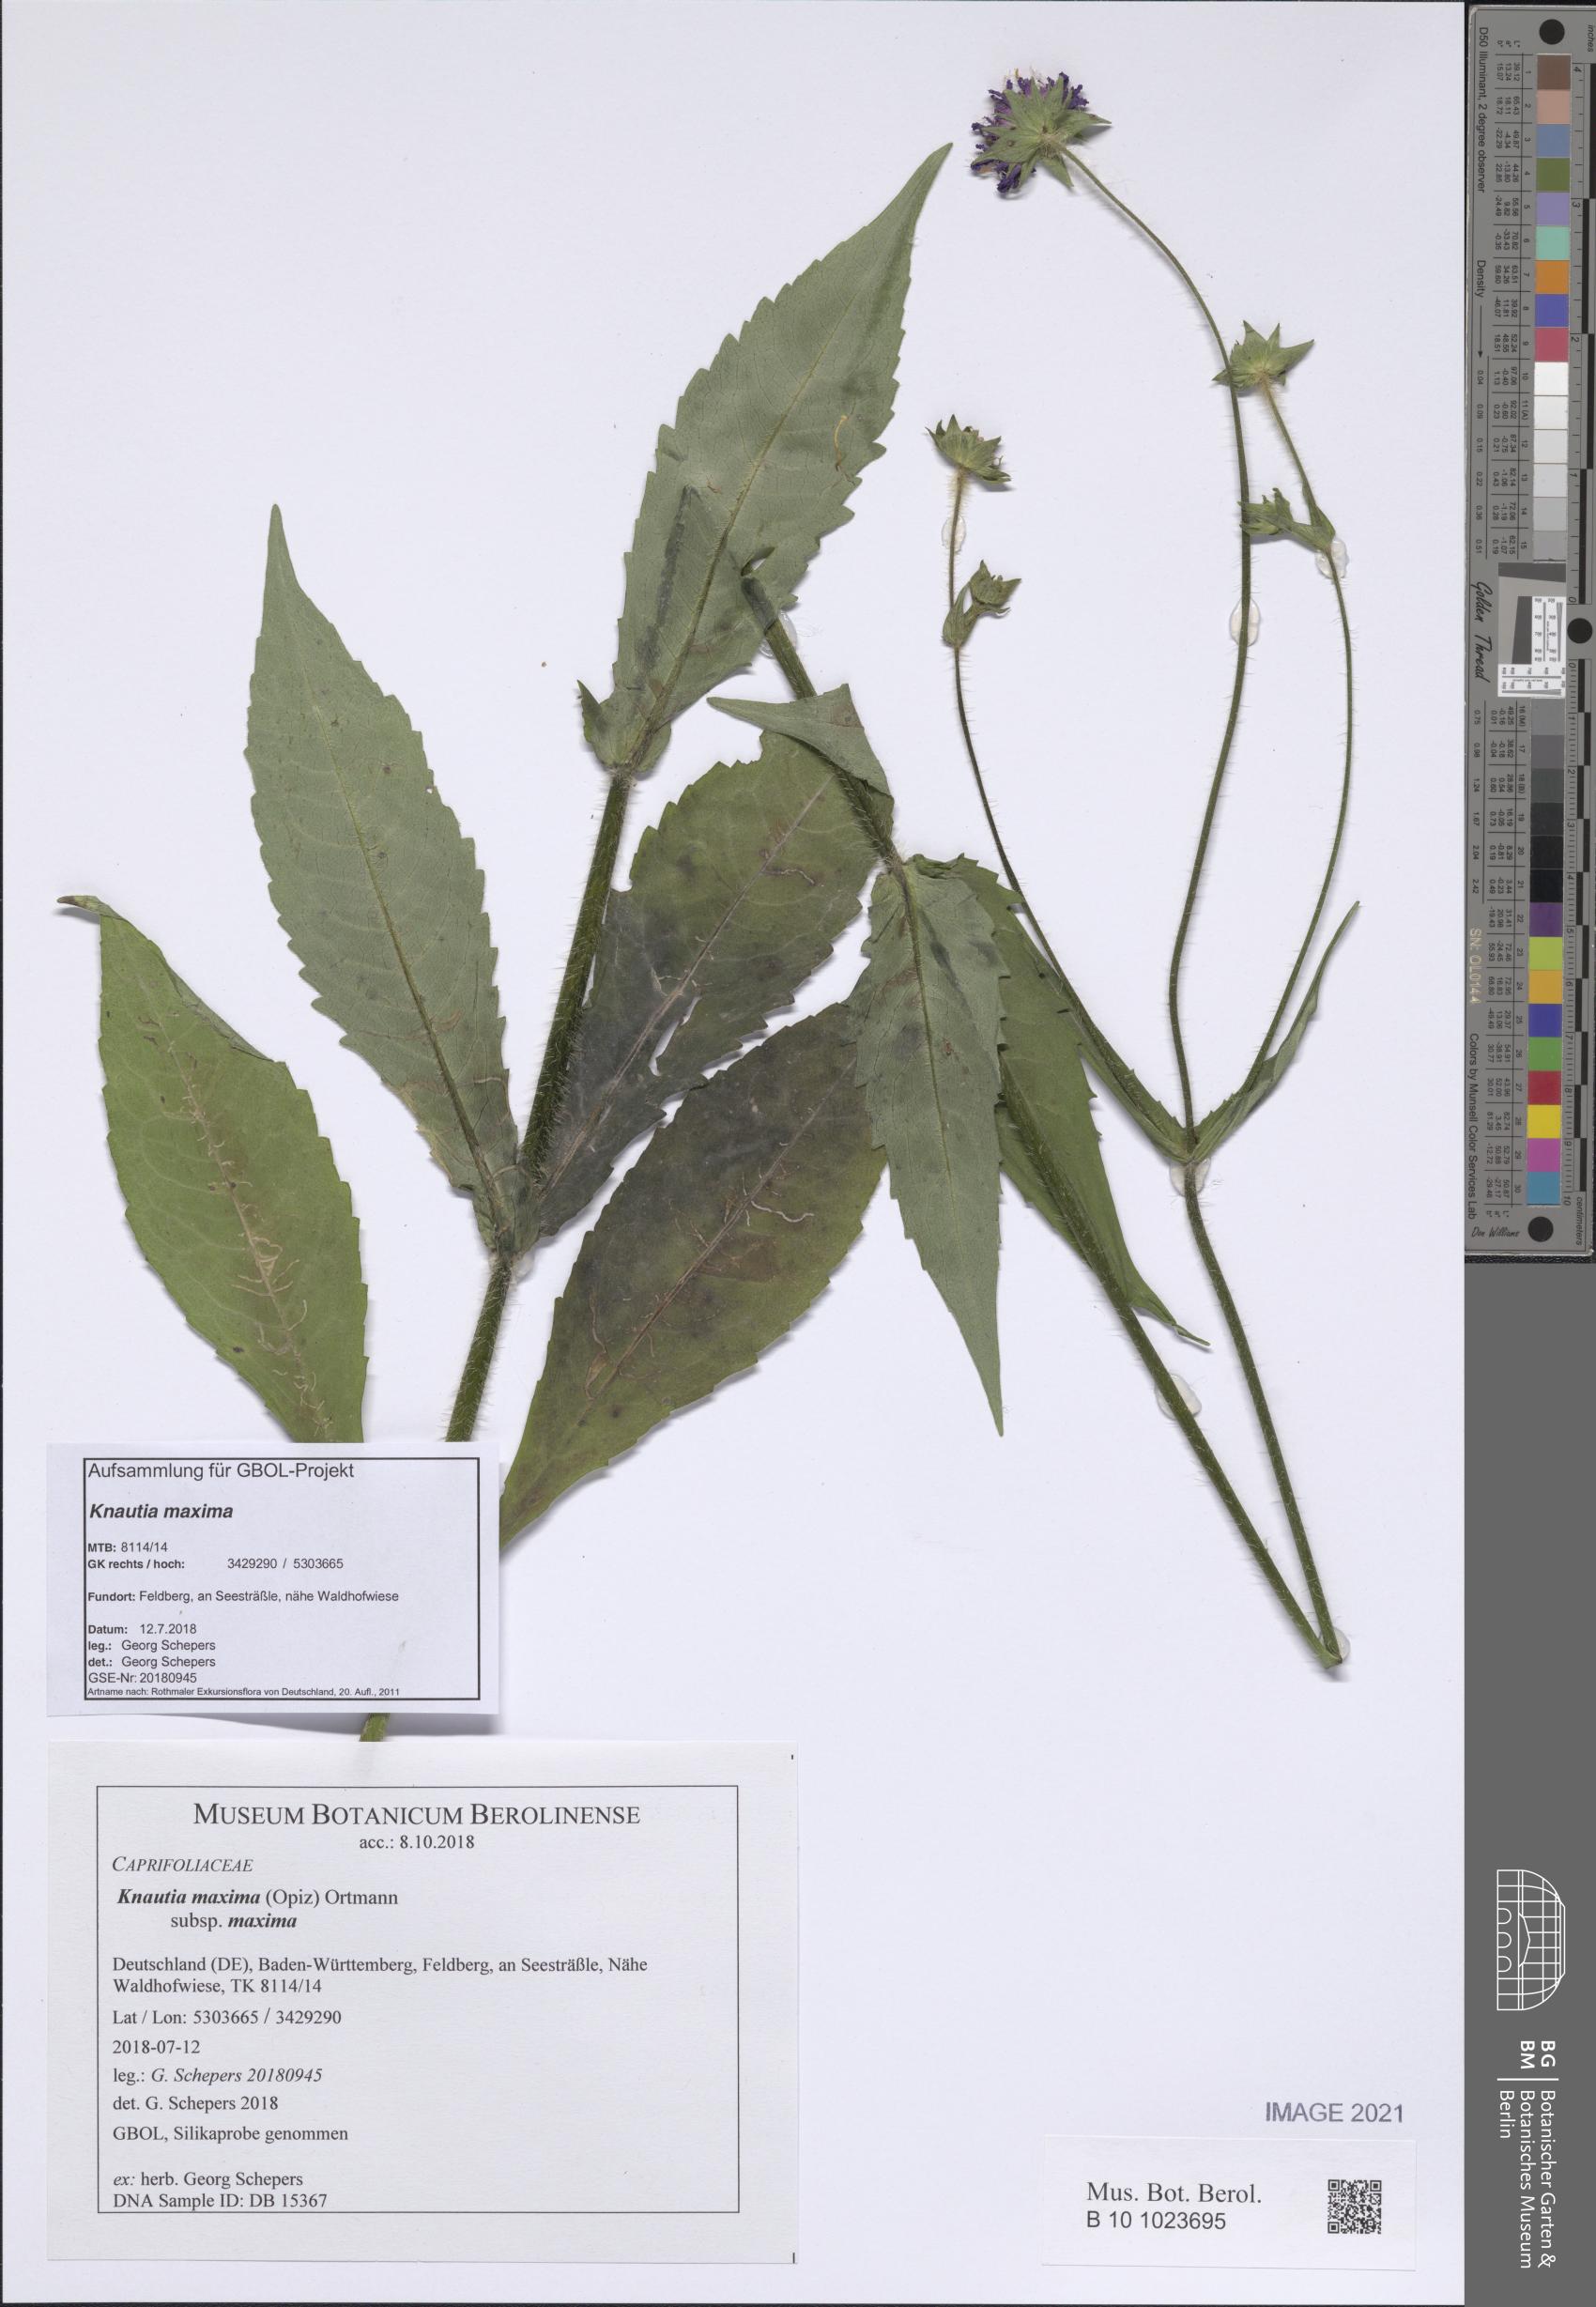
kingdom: Plantae
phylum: Tracheophyta
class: Magnoliopsida
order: Dipsacales
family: Caprifoliaceae
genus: Knautia
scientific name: Knautia dipsacifolia
